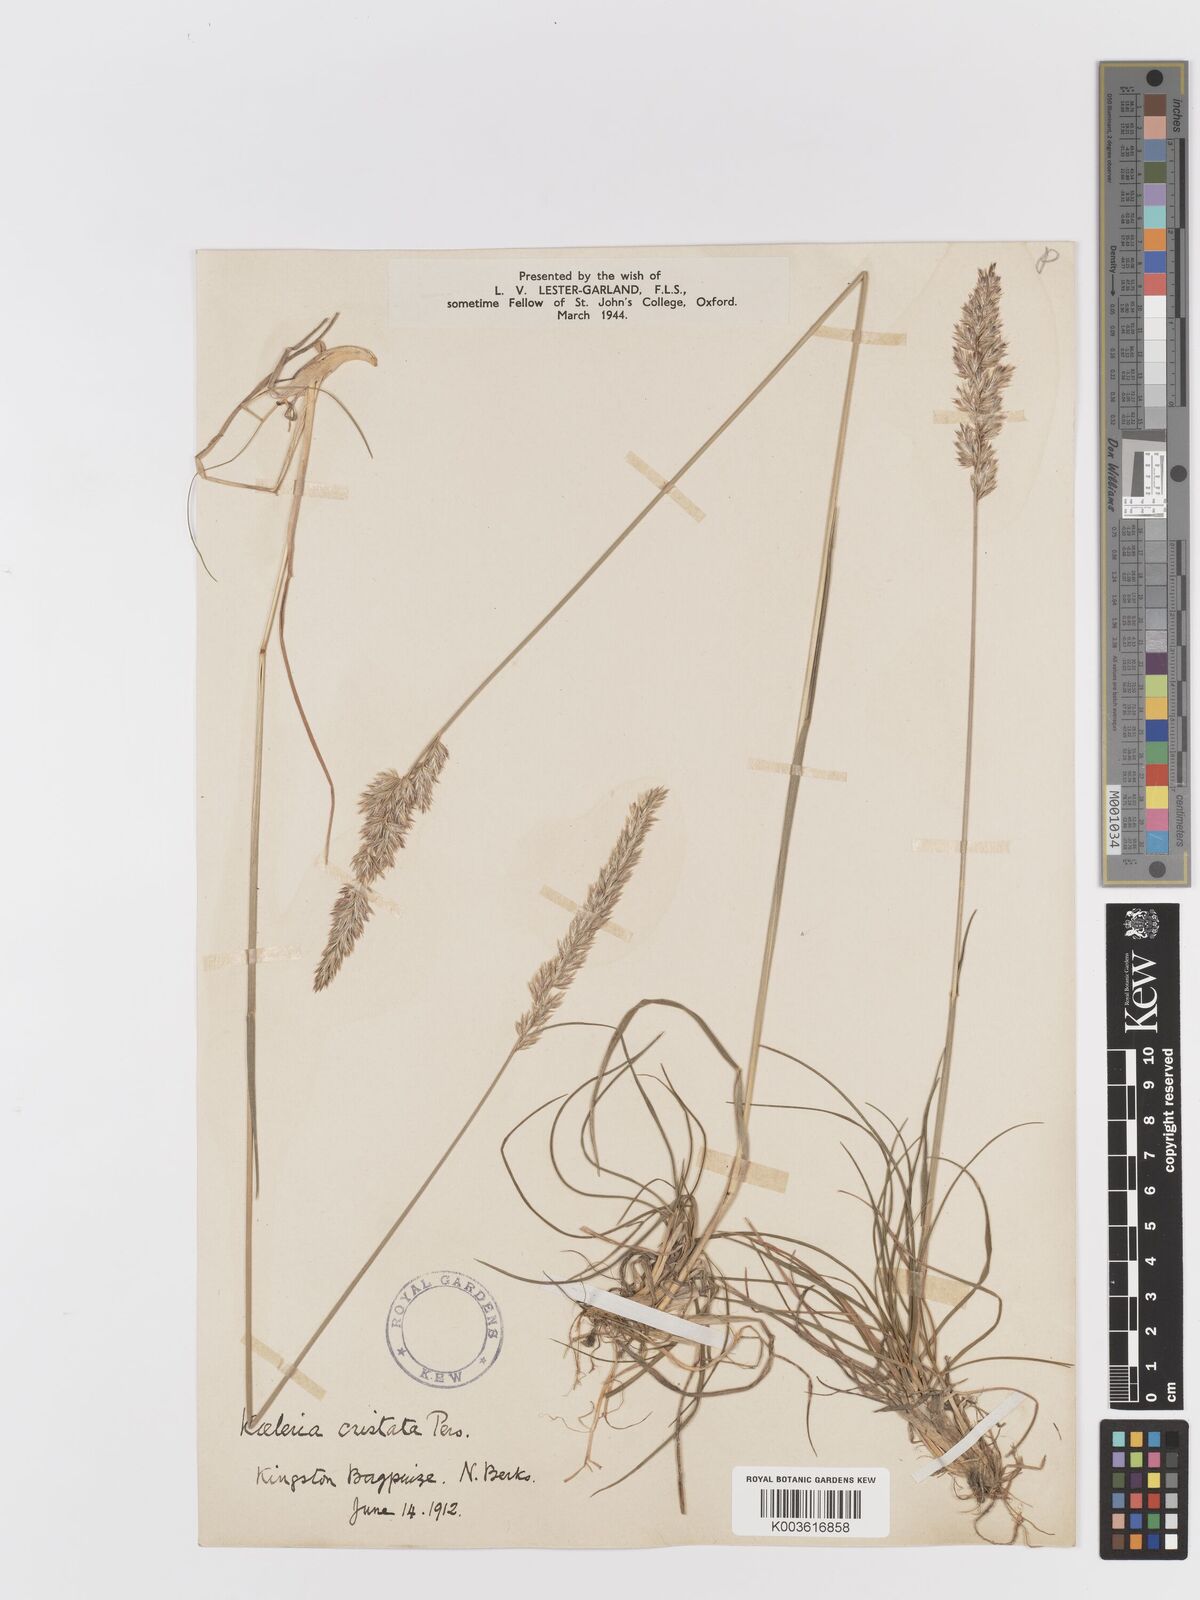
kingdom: Plantae
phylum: Tracheophyta
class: Liliopsida
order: Poales
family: Poaceae
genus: Koeleria
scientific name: Koeleria macrantha
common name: Crested hair-grass
